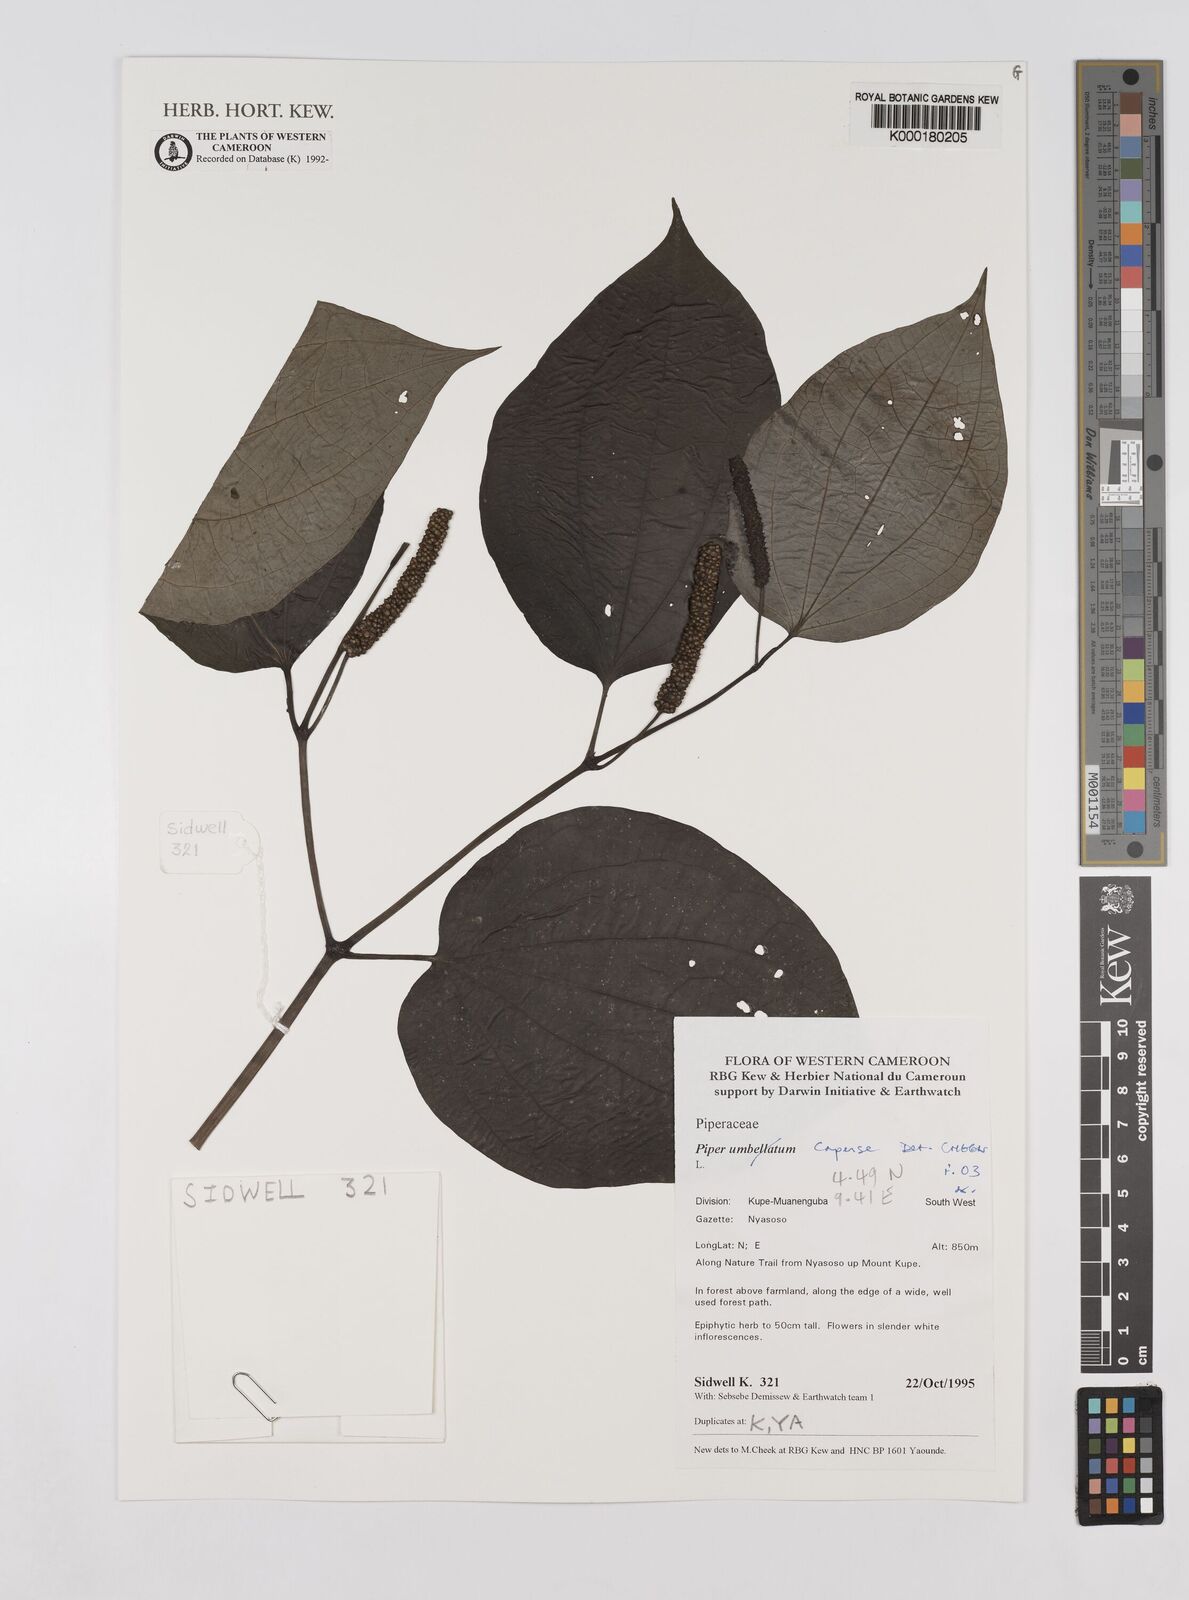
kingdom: Plantae
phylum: Tracheophyta
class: Magnoliopsida
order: Piperales
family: Piperaceae
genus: Piper
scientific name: Piper capense
